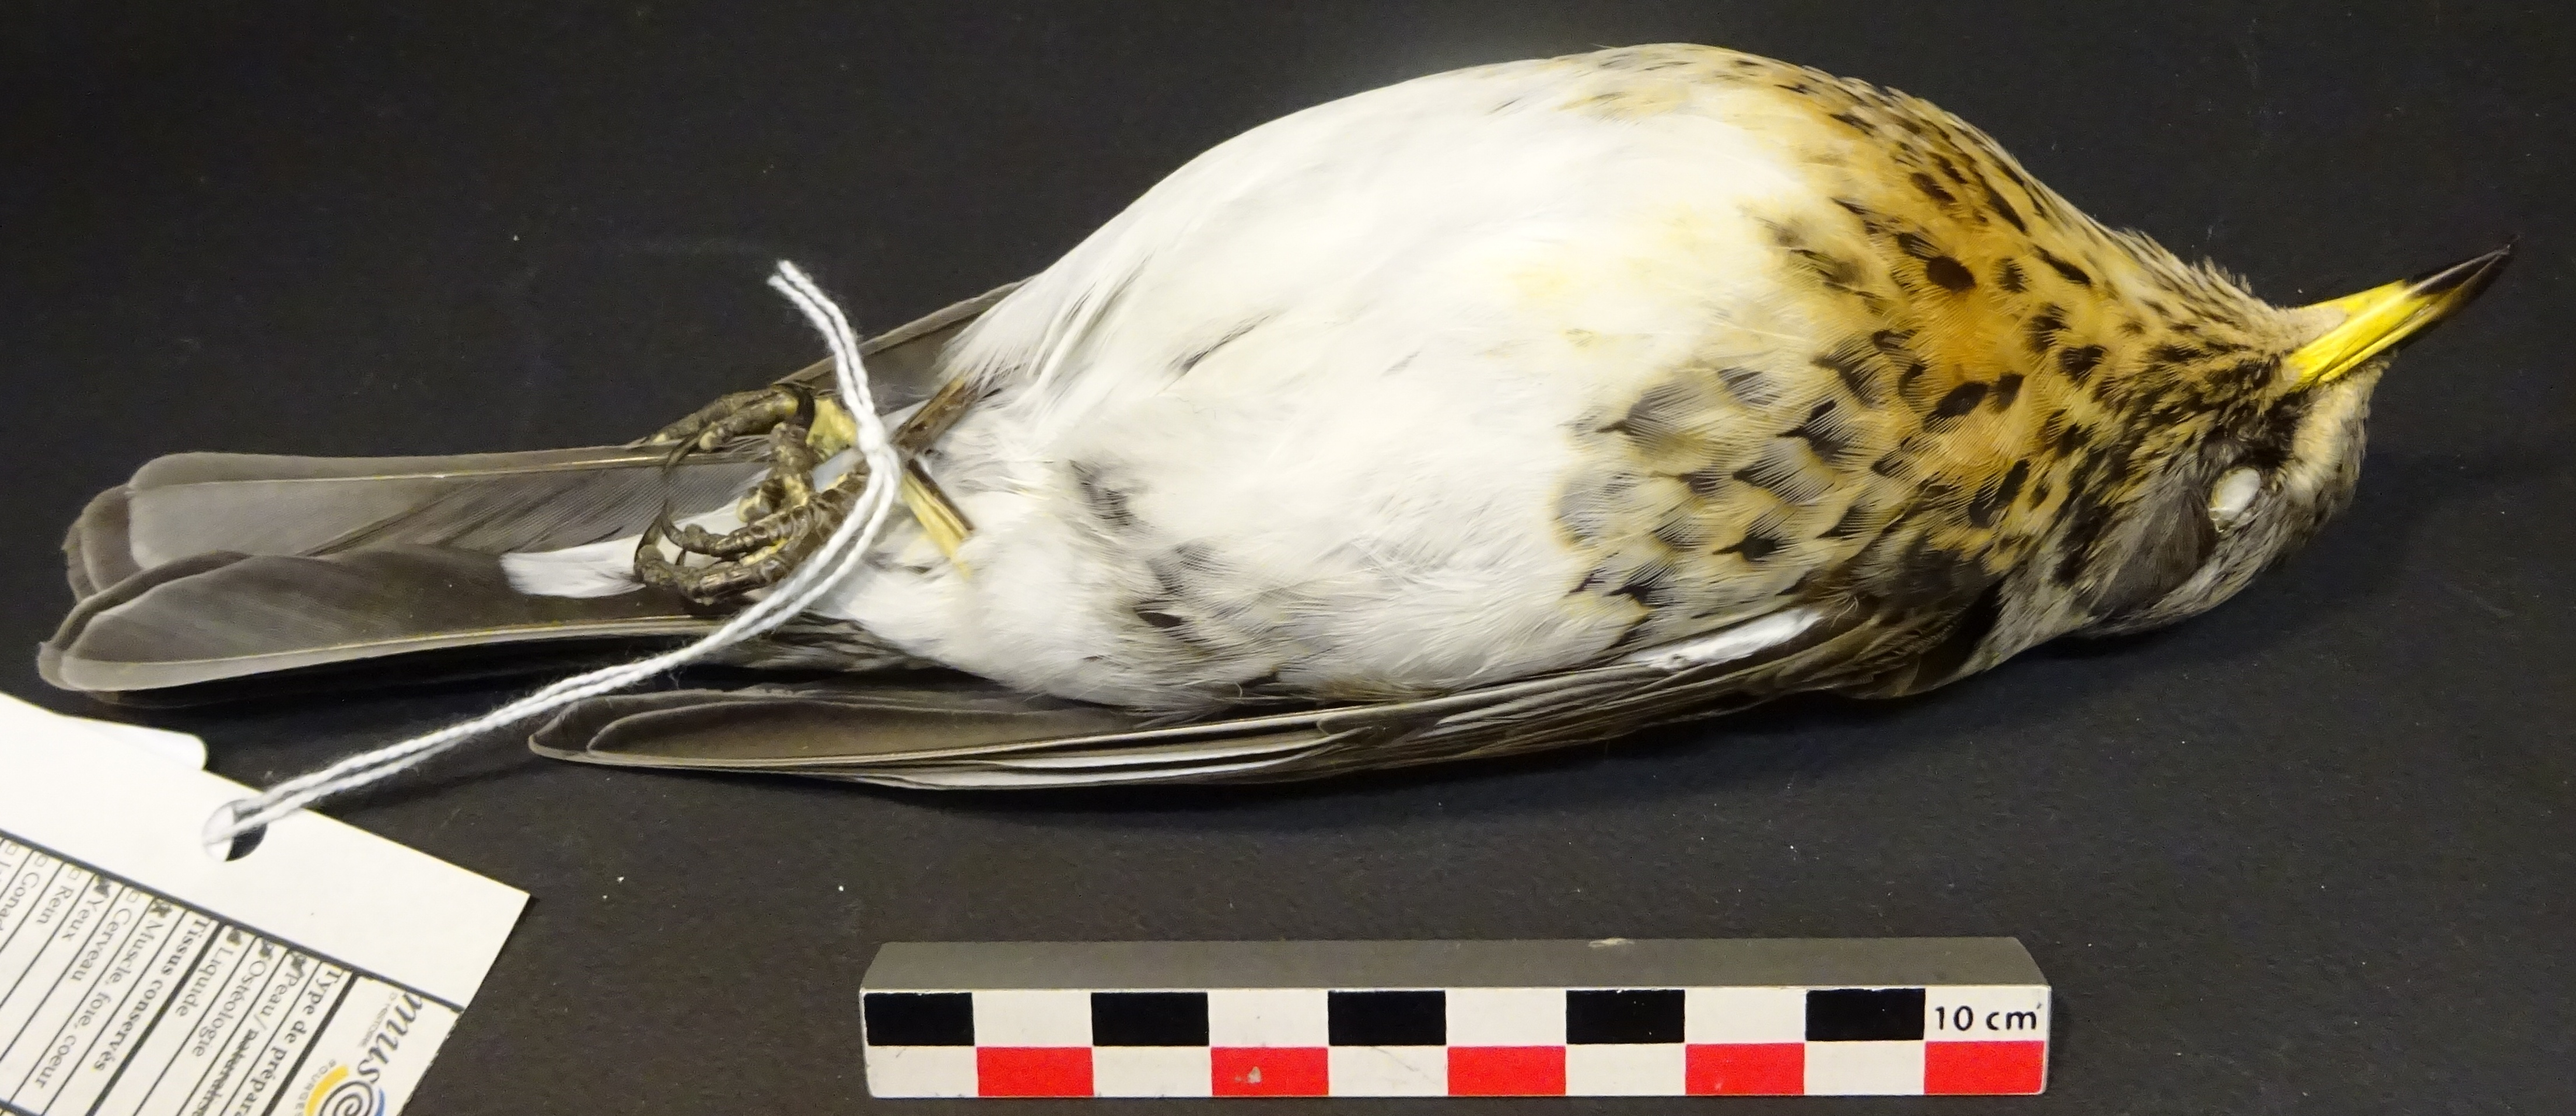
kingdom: Animalia
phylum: Chordata
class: Aves
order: Passeriformes
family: Turdidae
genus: Turdus
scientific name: Turdus pilaris
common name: Fieldfare
